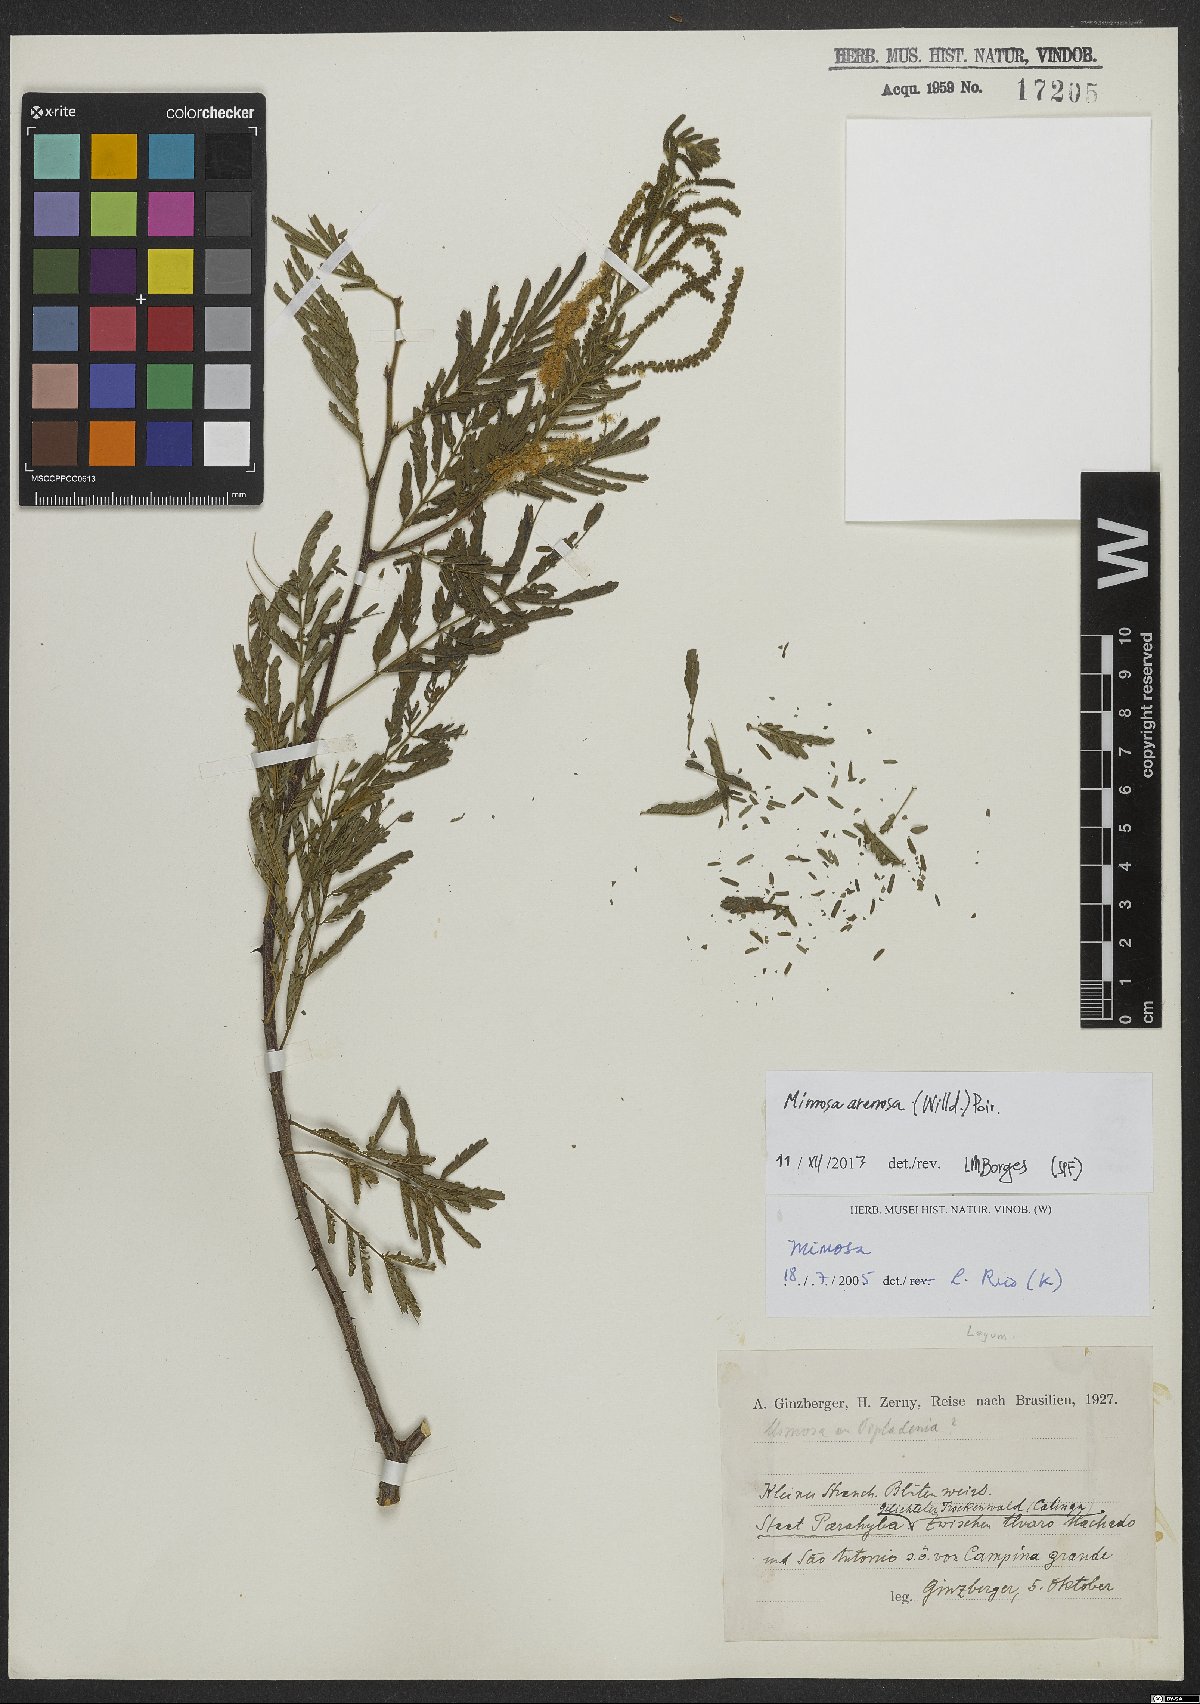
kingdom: Plantae
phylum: Tracheophyta
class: Magnoliopsida
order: Fabales
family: Fabaceae
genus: Mimosa
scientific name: Mimosa arenosa
